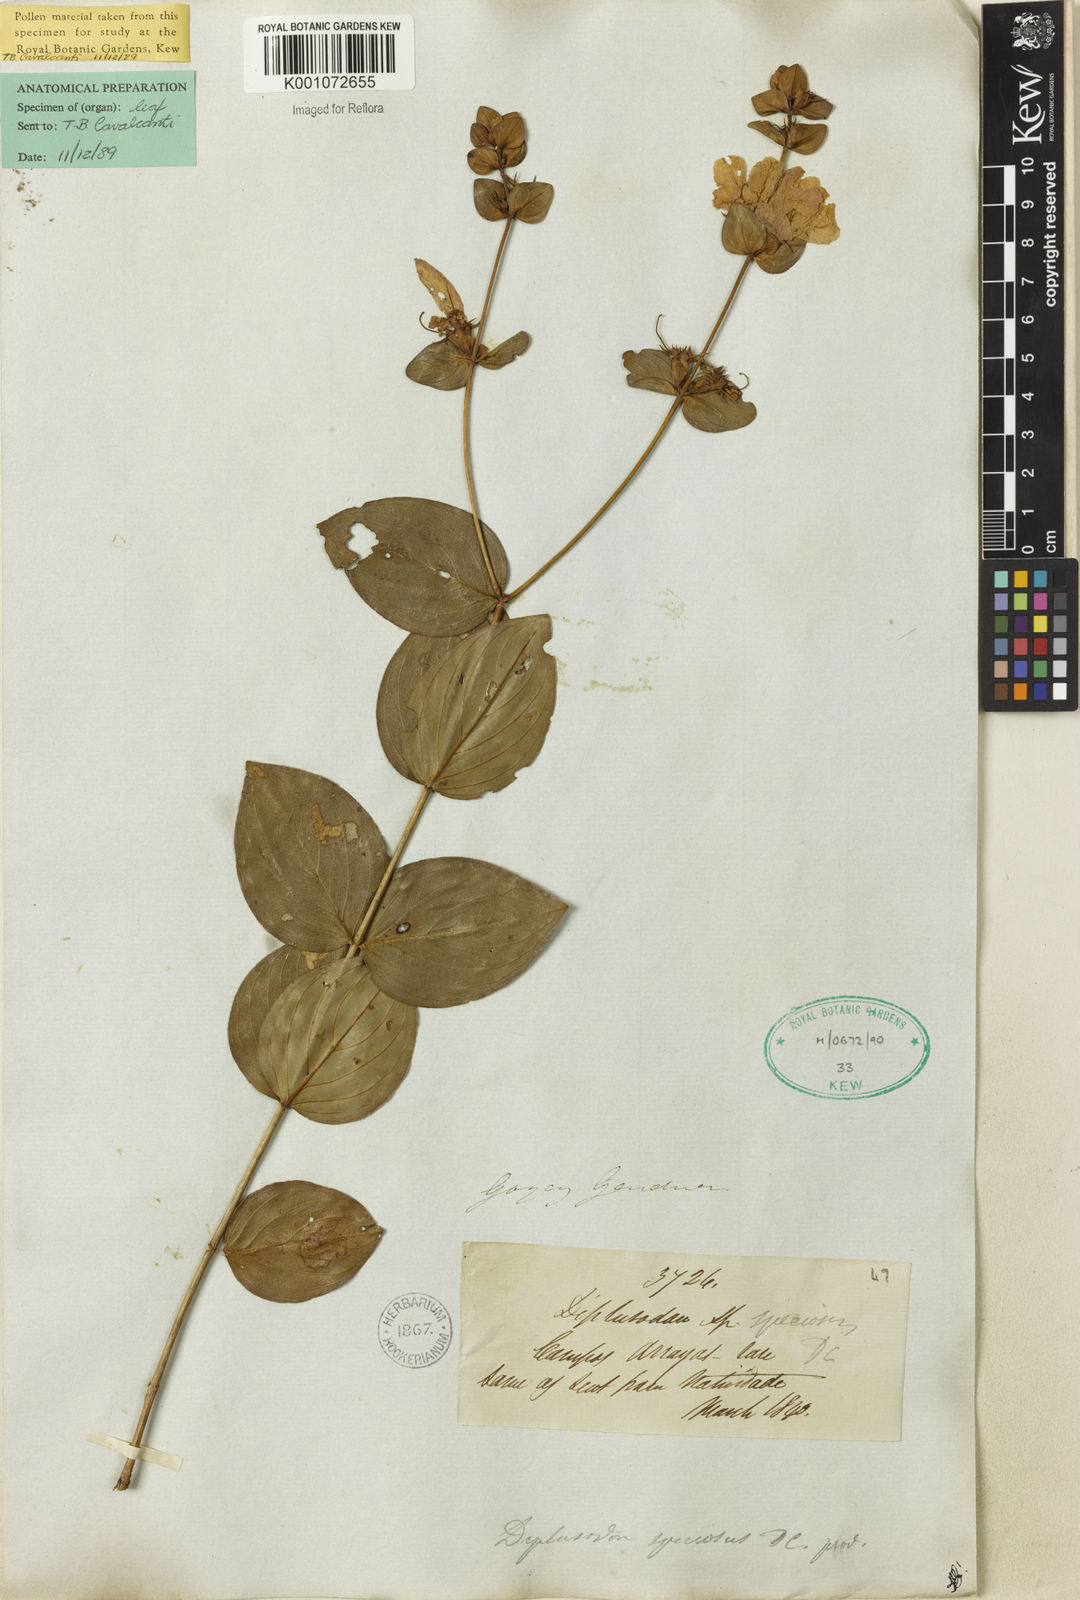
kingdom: Plantae
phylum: Tracheophyta
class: Magnoliopsida
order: Myrtales
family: Lythraceae
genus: Diplusodon
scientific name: Diplusodon speciosus
